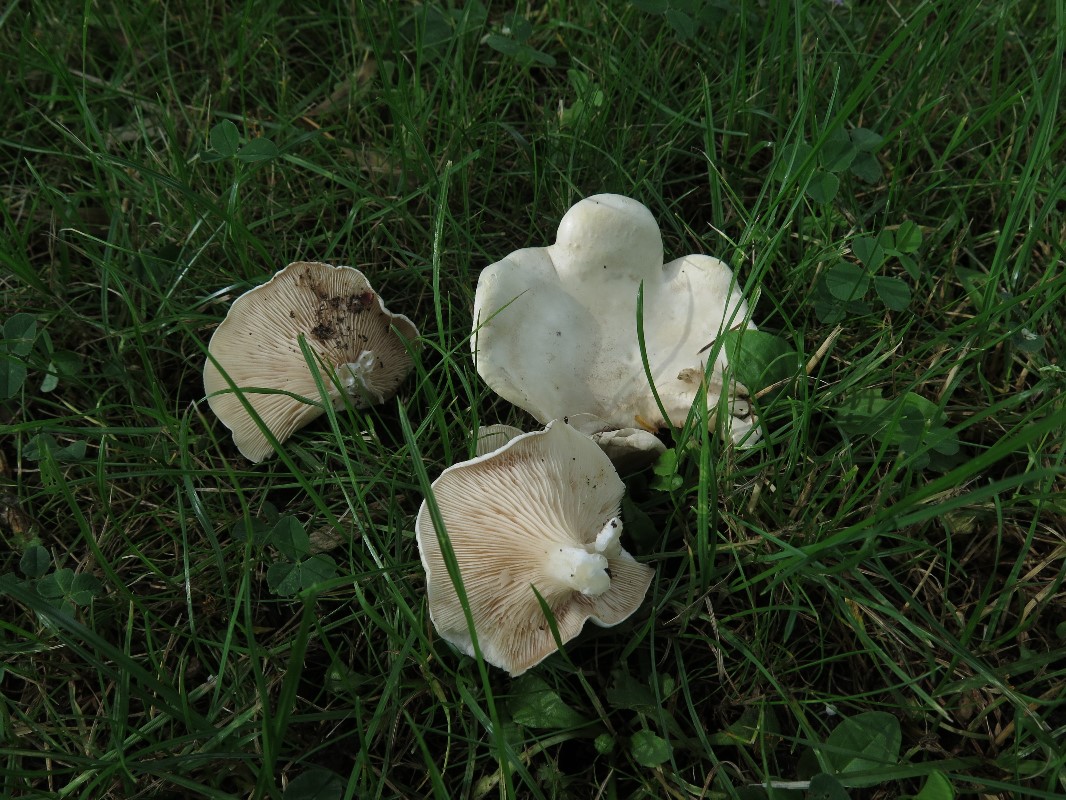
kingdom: Fungi
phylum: Basidiomycota
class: Agaricomycetes
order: Agaricales
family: Entolomataceae
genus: Clitopilus
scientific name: Clitopilus prunulus
